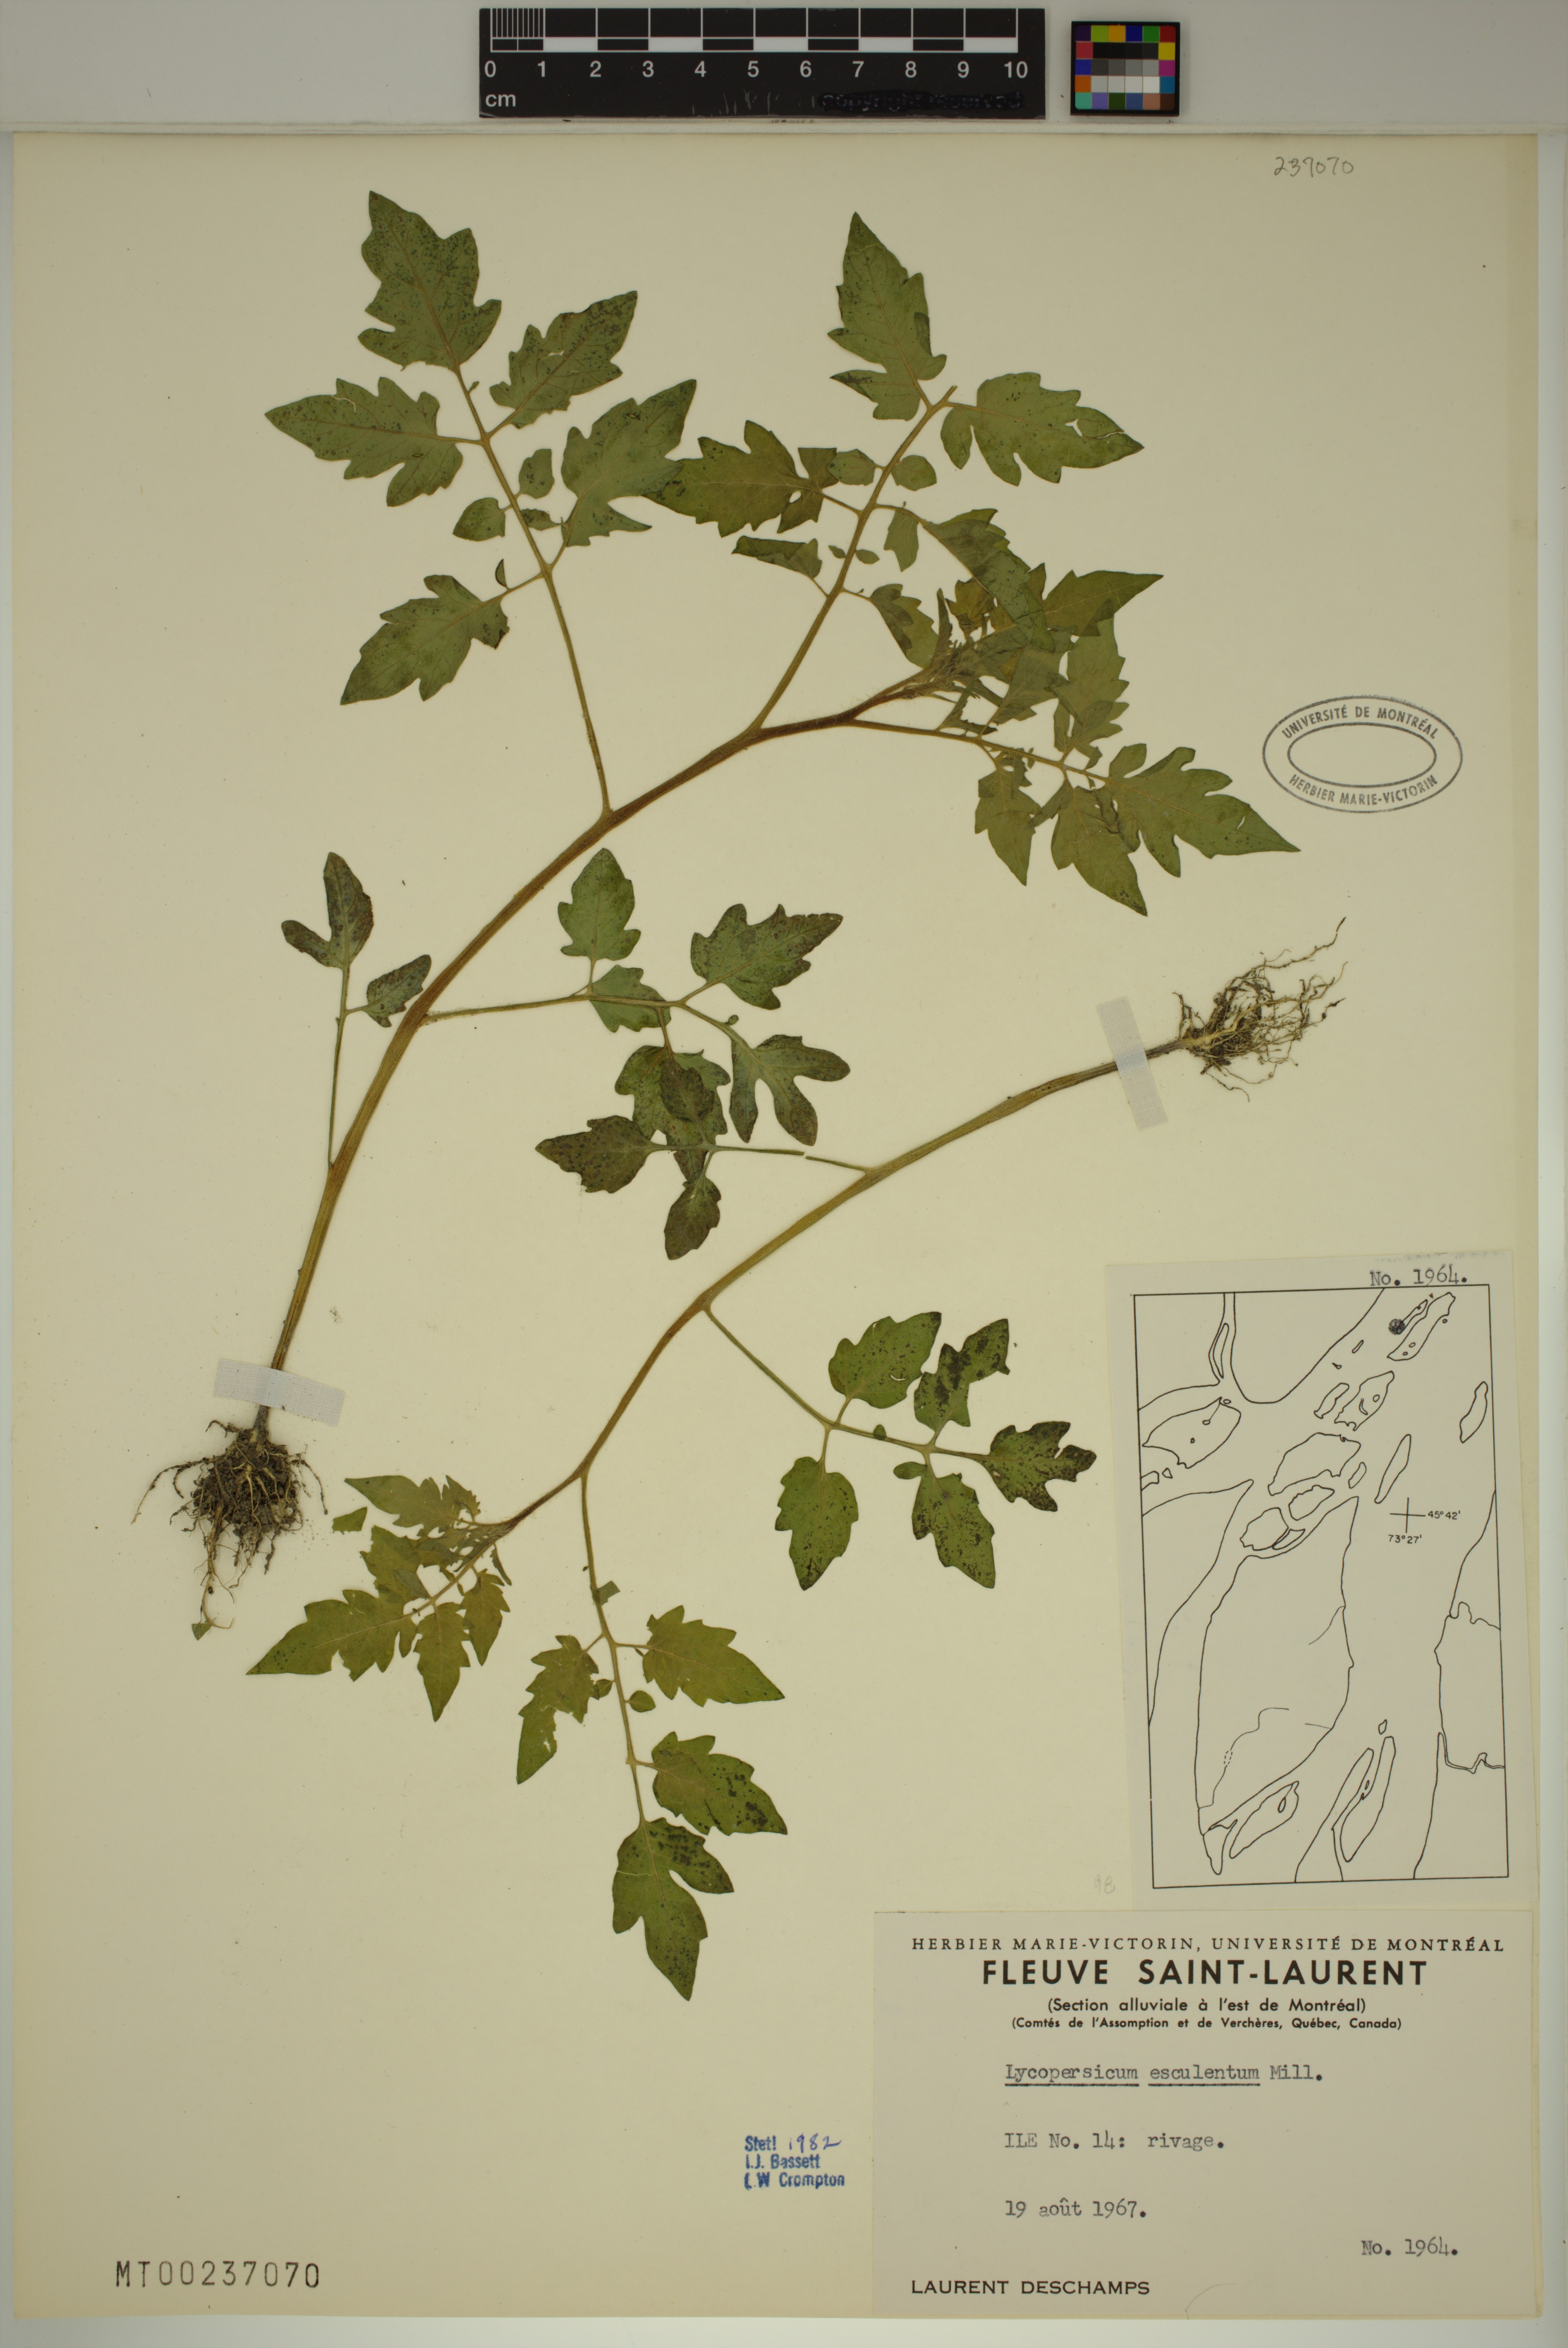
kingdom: Plantae
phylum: Tracheophyta
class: Magnoliopsida
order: Solanales
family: Solanaceae
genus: Solanum
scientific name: Solanum lycopersicum
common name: Garden tomato
